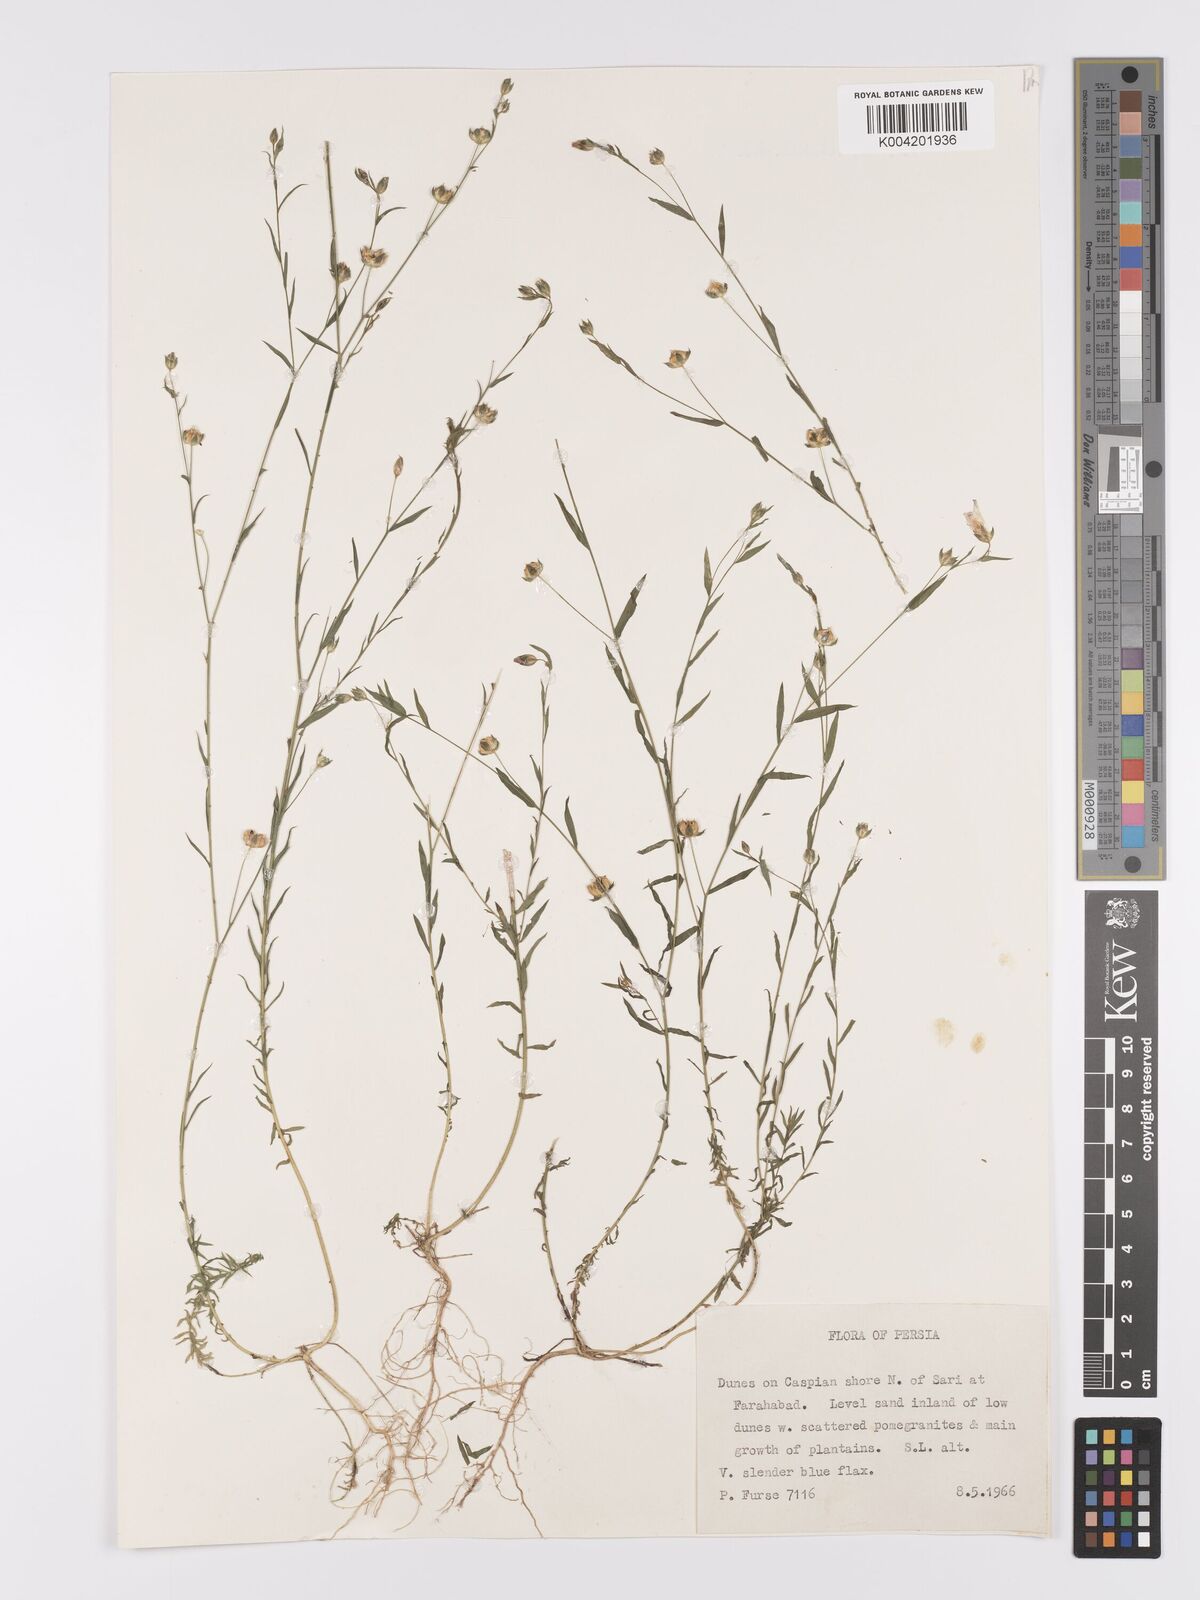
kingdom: Plantae
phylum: Tracheophyta
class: Magnoliopsida
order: Malpighiales
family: Linaceae
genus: Linum
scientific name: Linum
